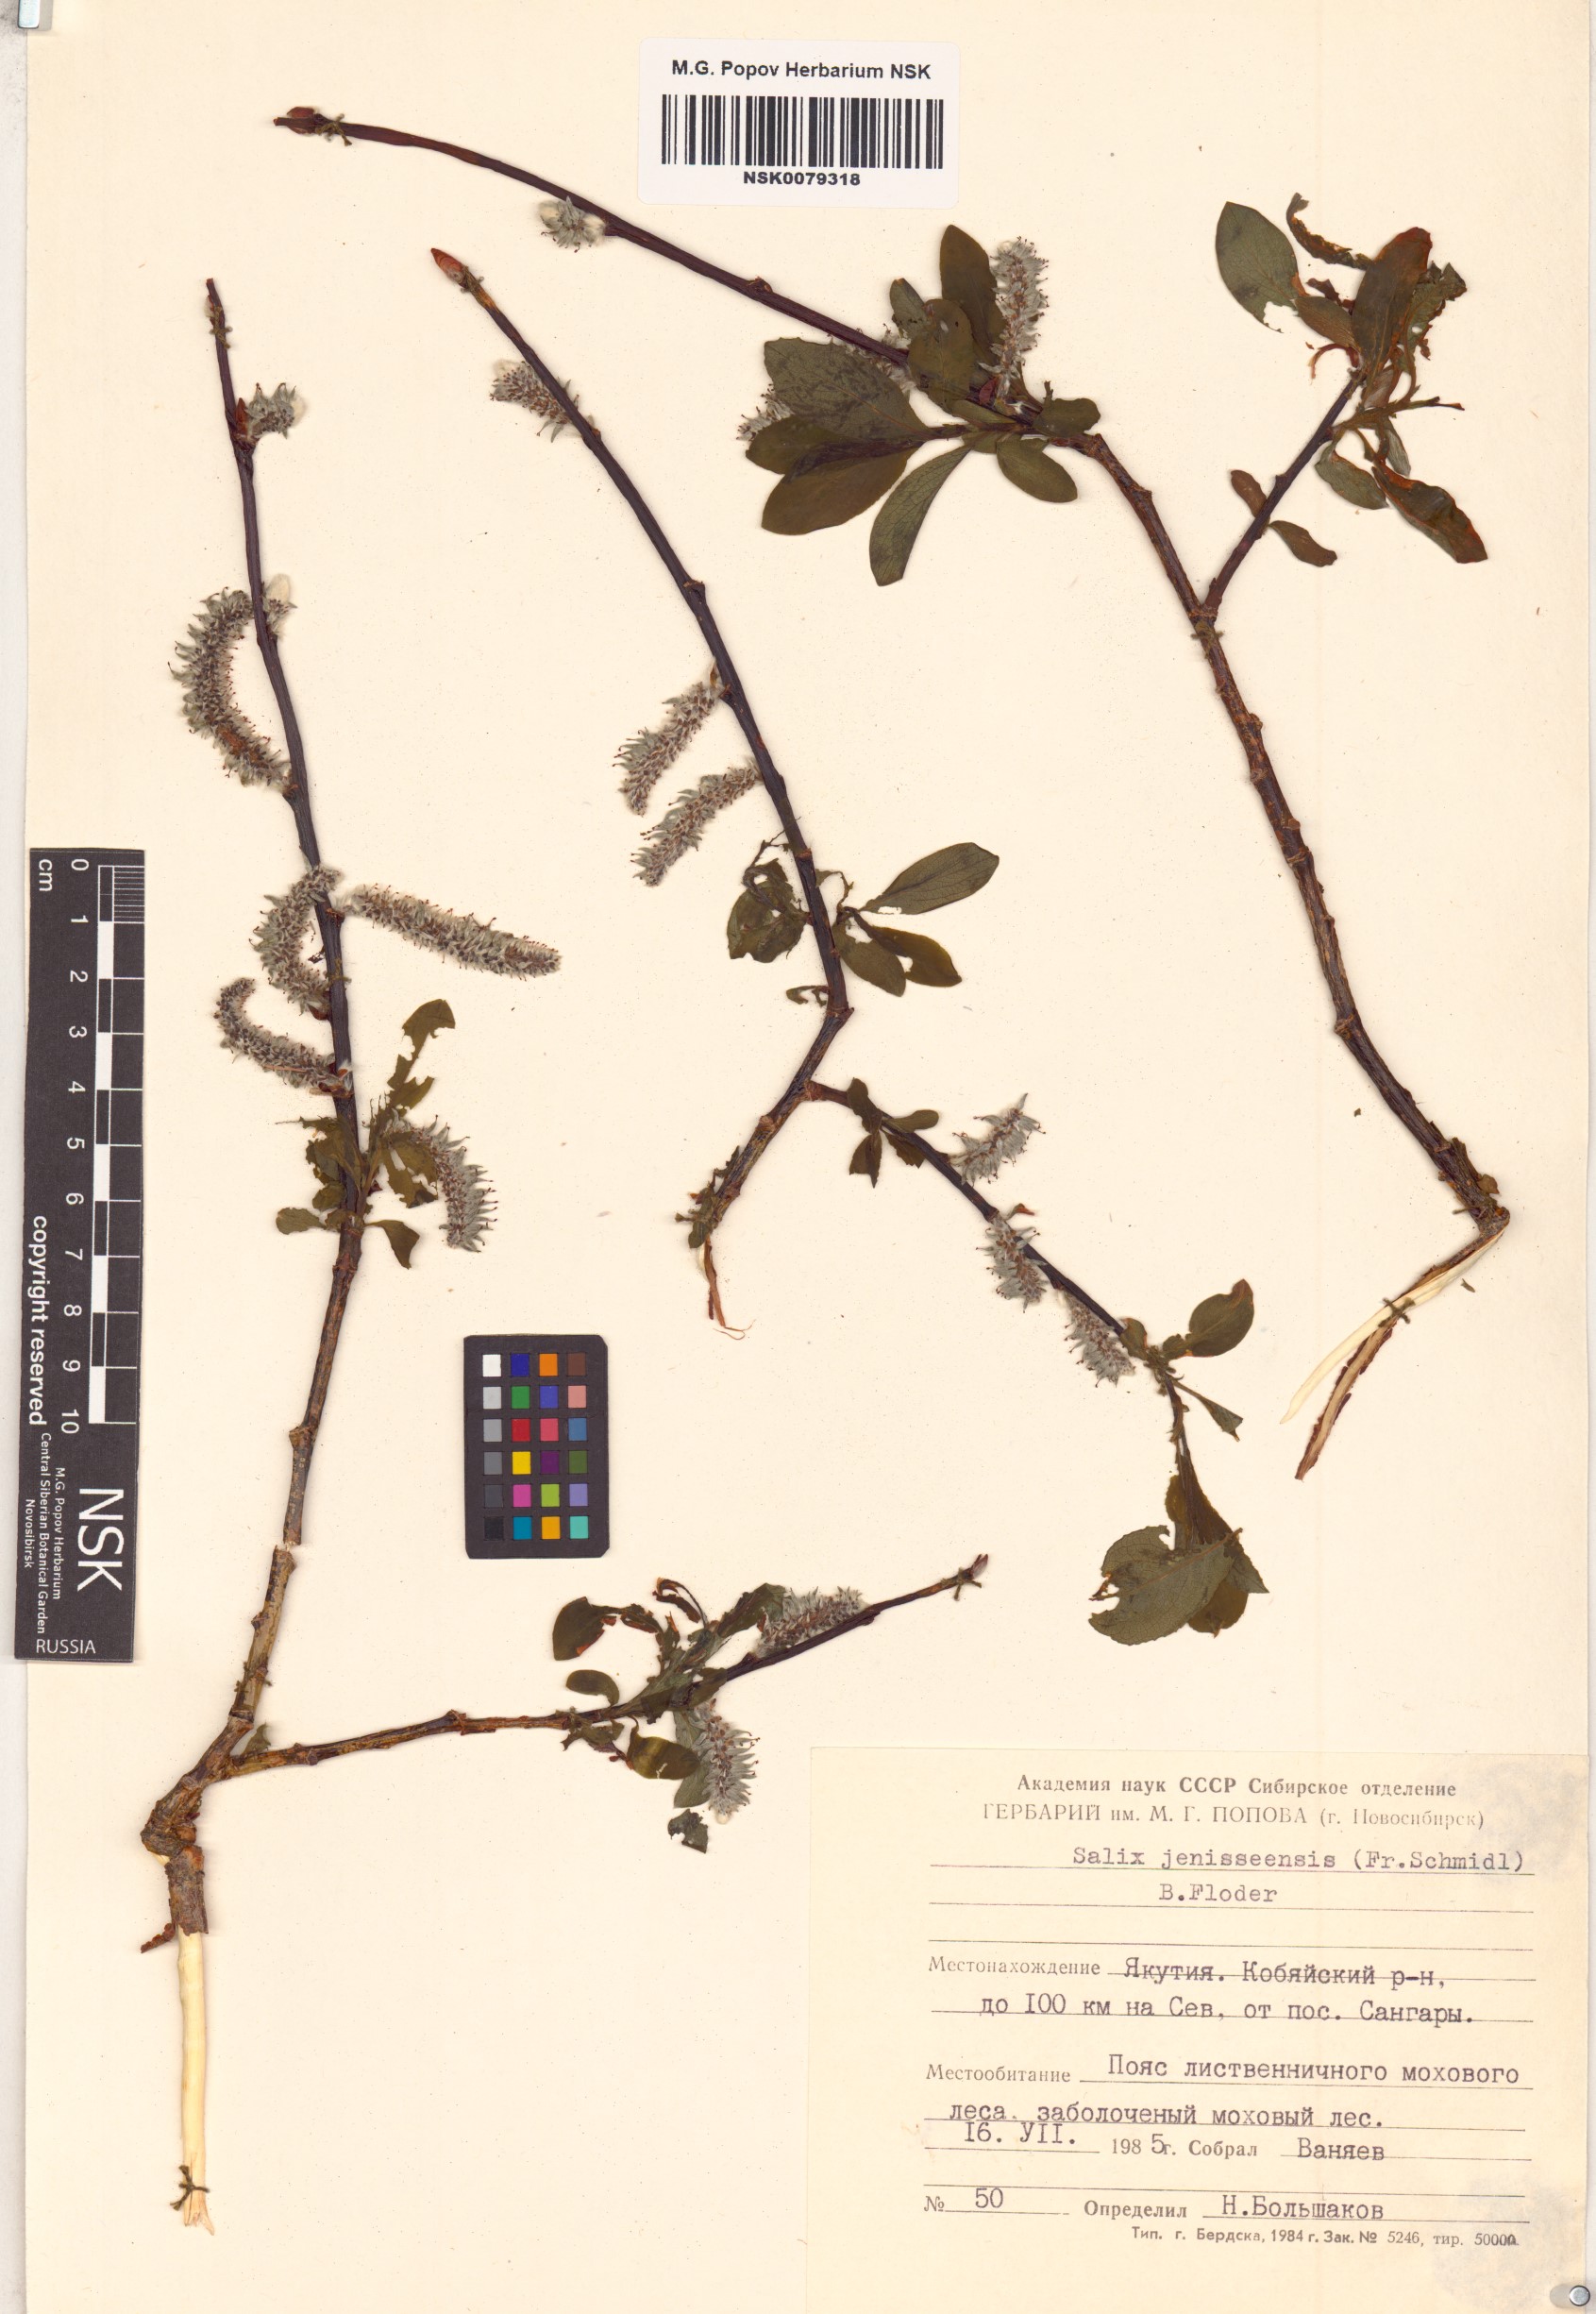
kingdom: Plantae
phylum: Tracheophyta
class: Magnoliopsida
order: Malpighiales
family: Salicaceae
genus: Salix
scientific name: Salix jenisseensis
